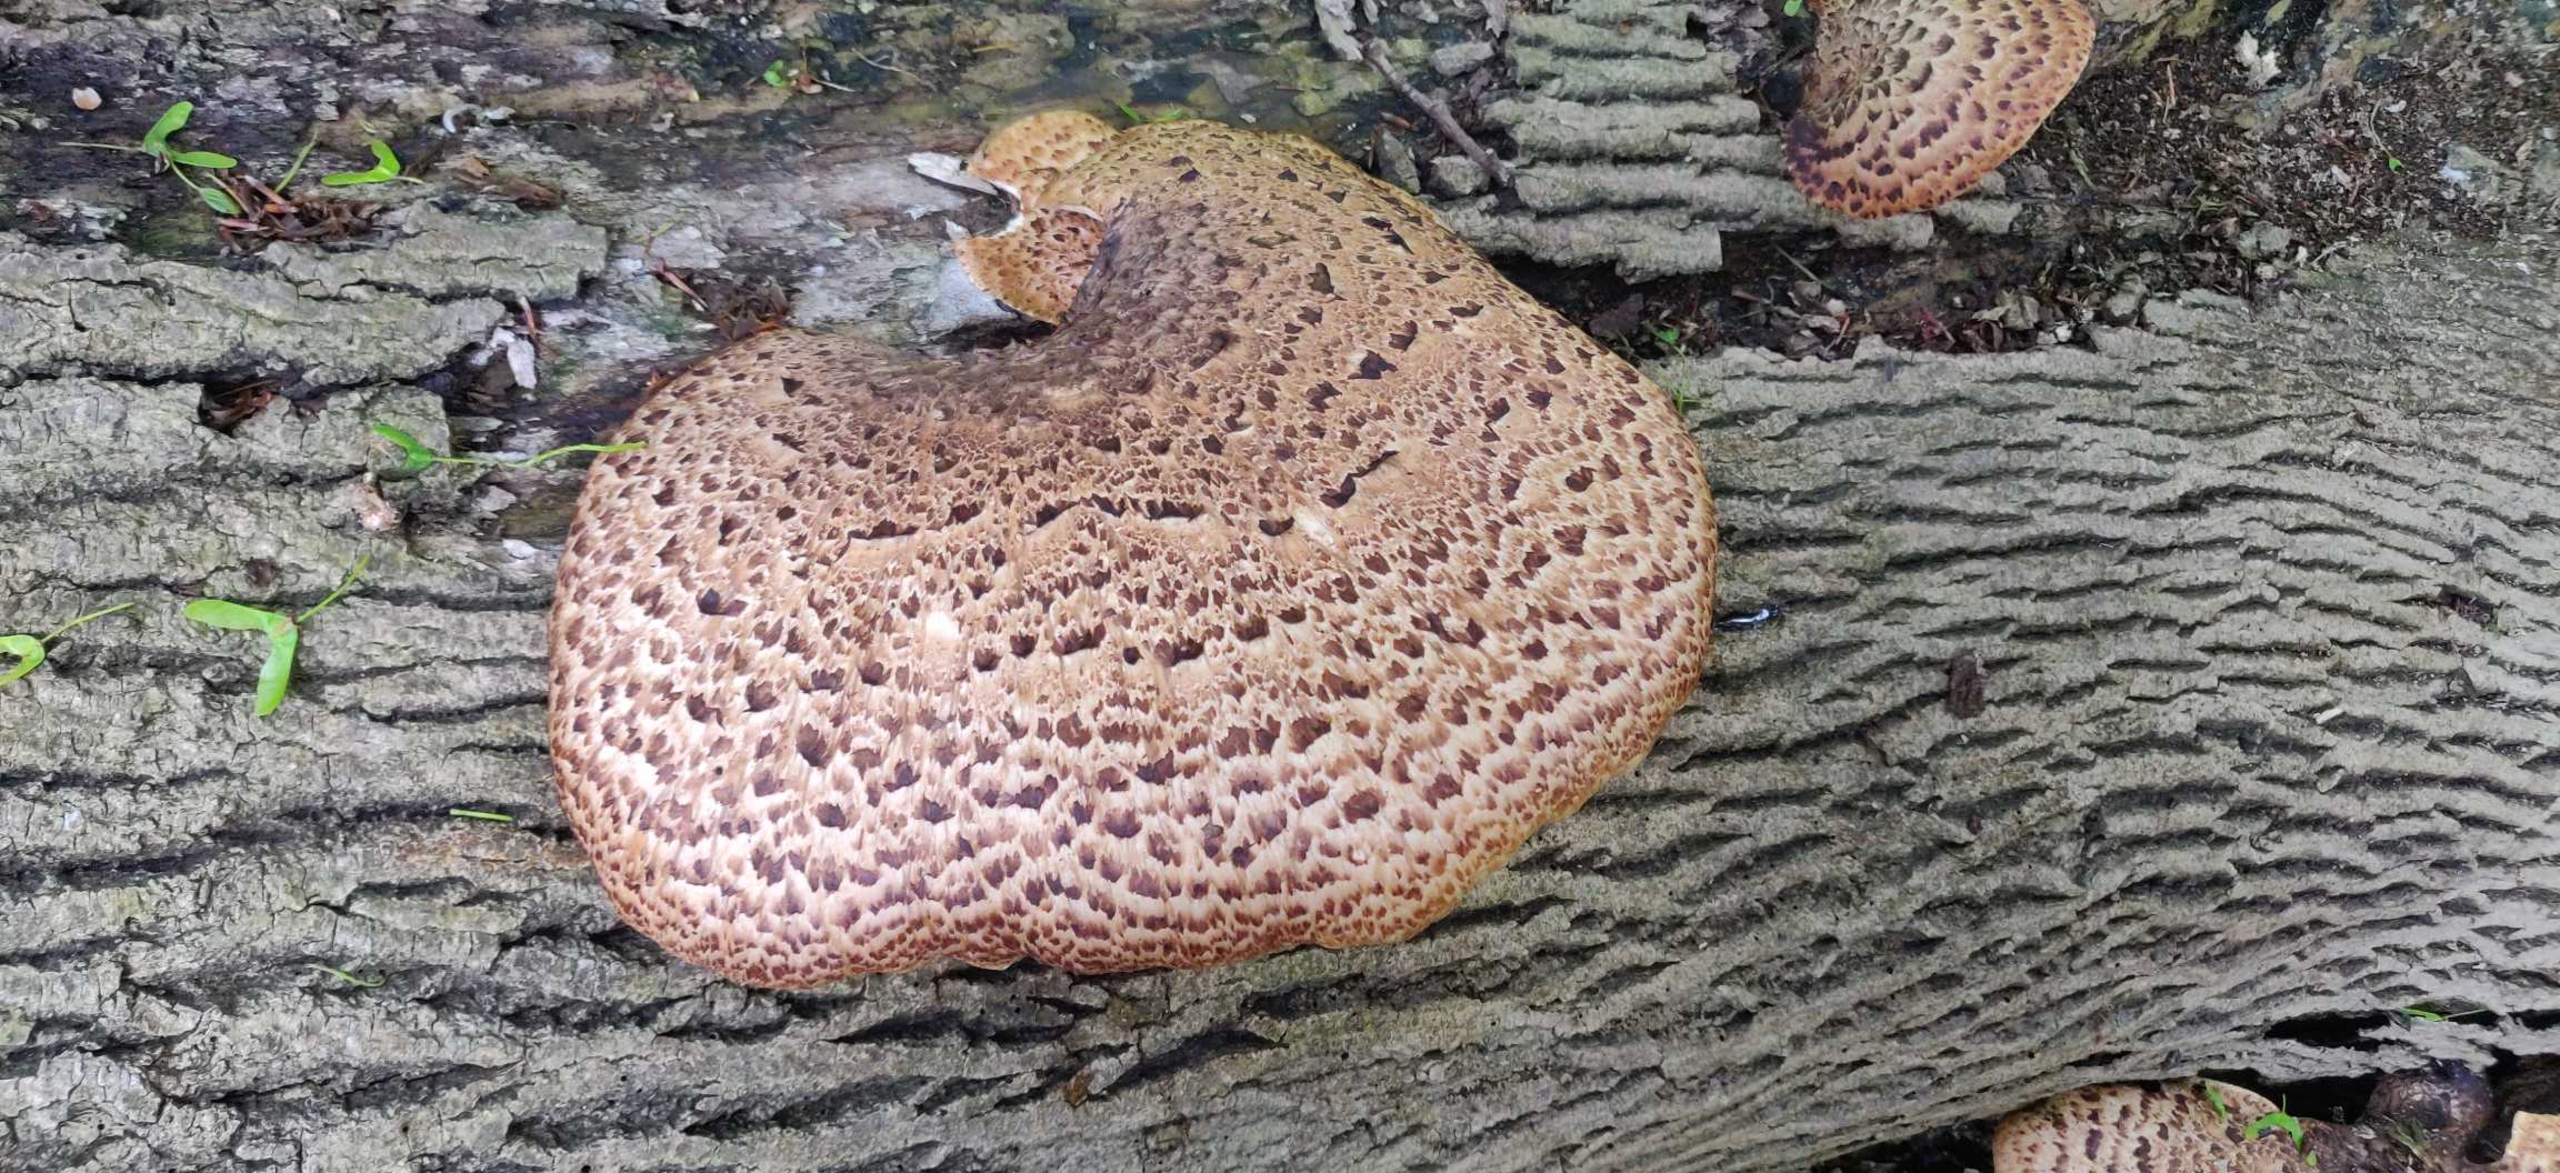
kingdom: Fungi
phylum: Basidiomycota
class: Agaricomycetes
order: Polyporales
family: Polyporaceae
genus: Cerioporus
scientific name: Cerioporus squamosus
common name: Skællet stilkporesvamp
